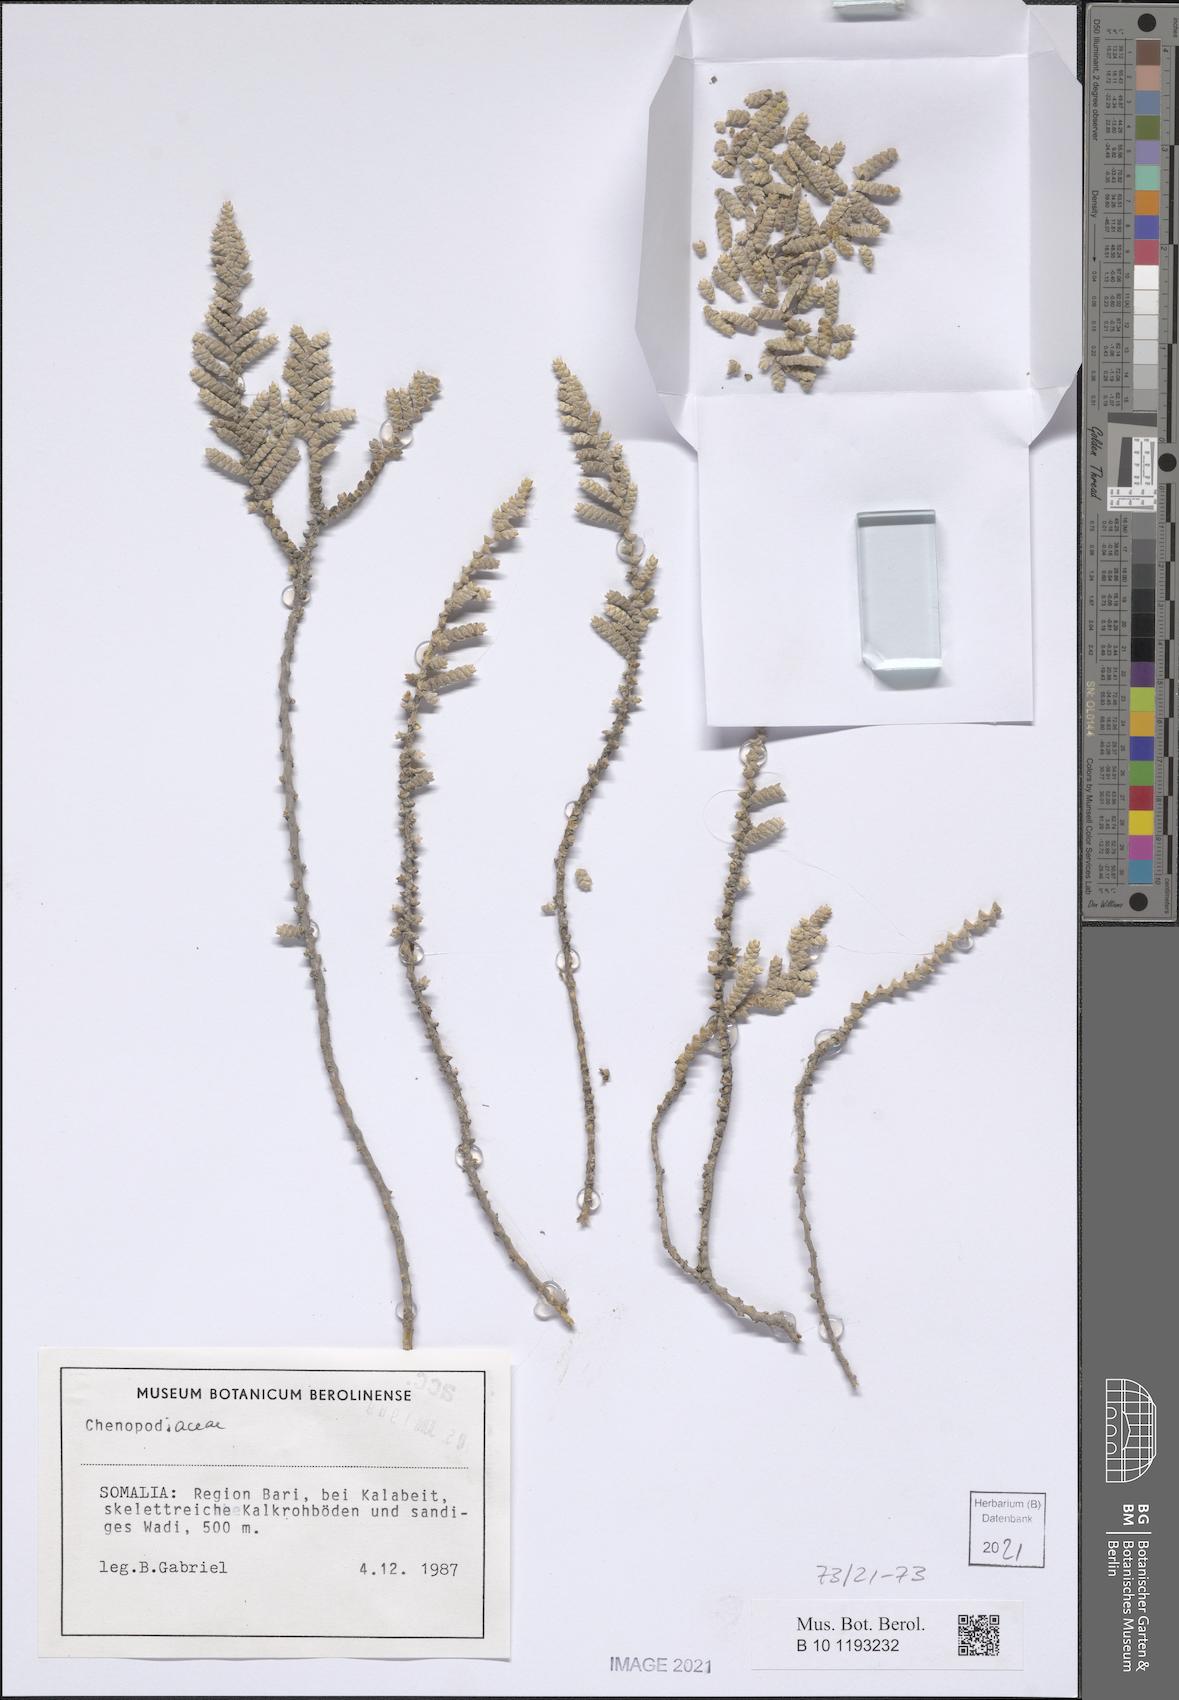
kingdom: Plantae
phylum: Tracheophyta
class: Magnoliopsida
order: Caryophyllales
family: Amaranthaceae
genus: Kaviria
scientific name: Kaviria pycnophylla
